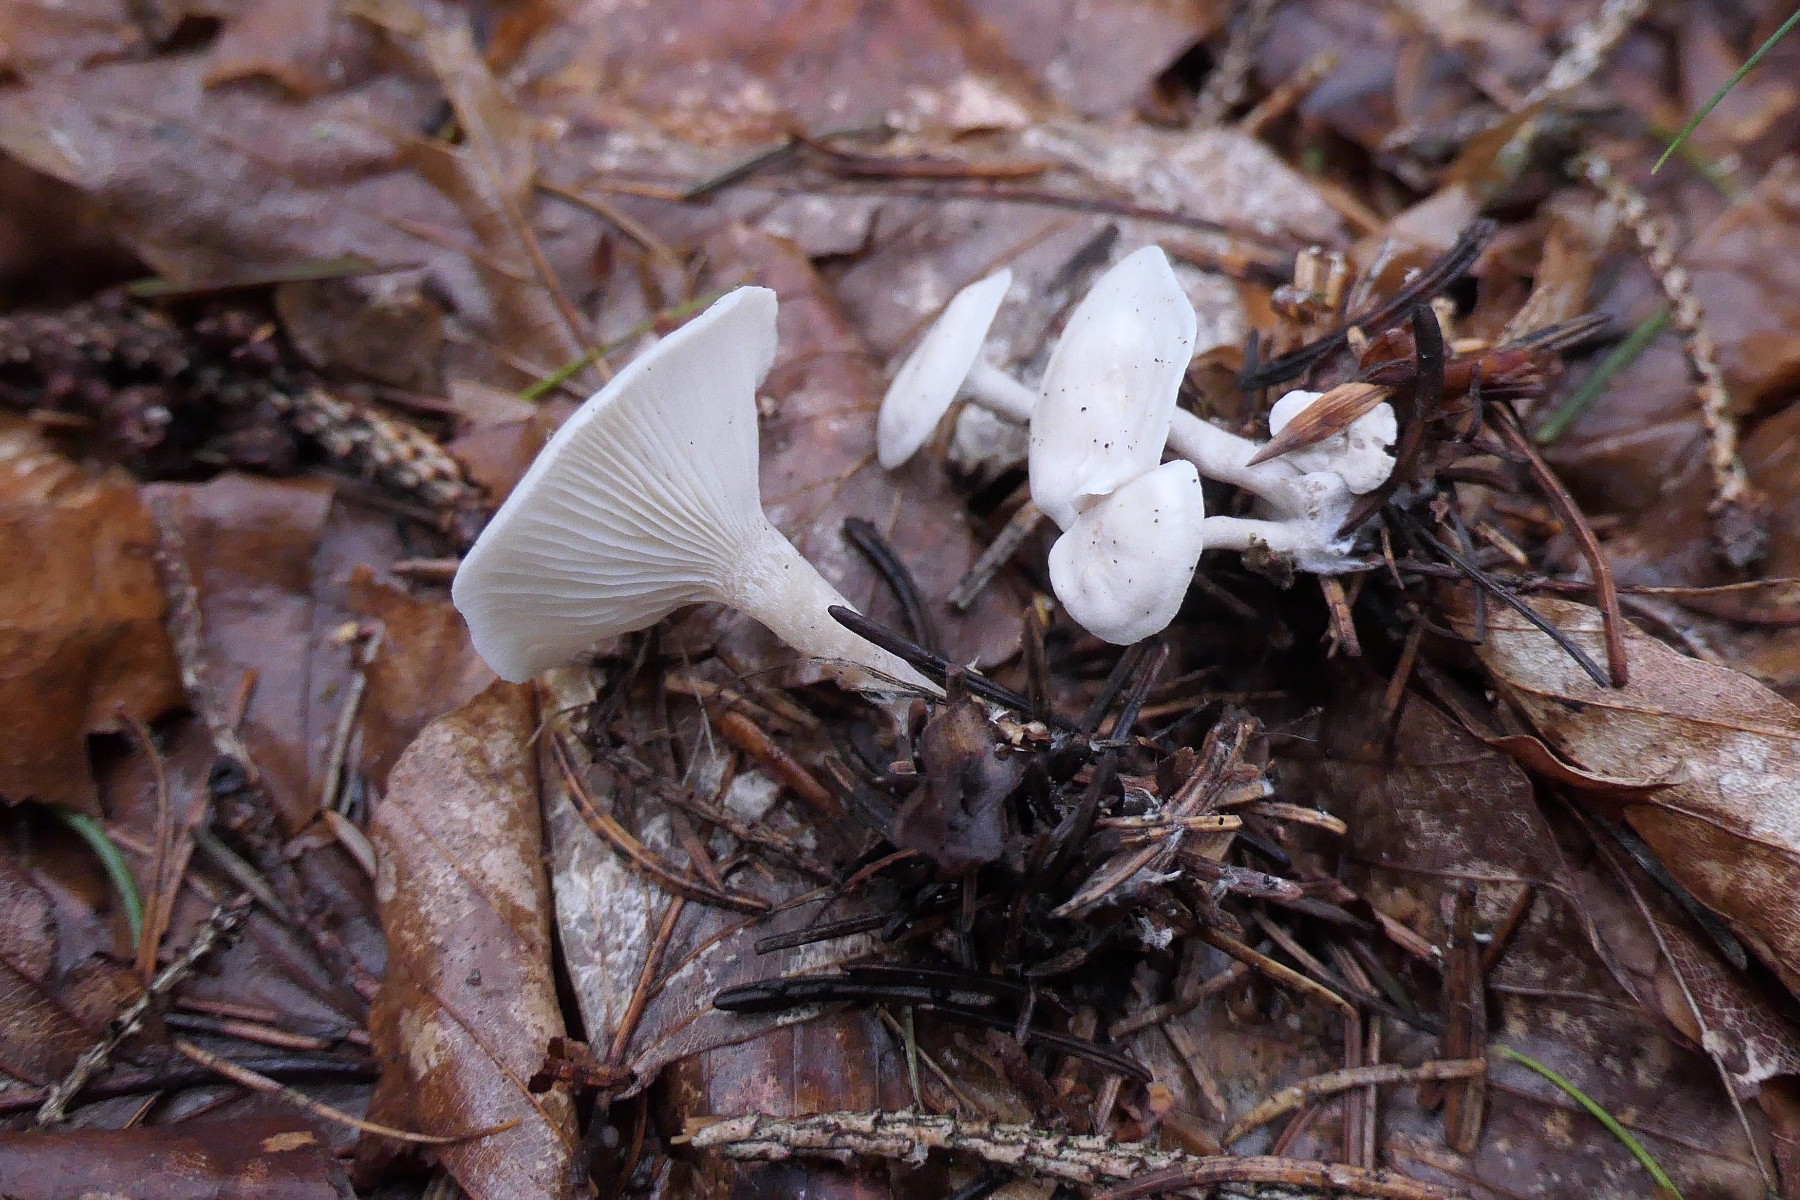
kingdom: Fungi
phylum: Basidiomycota
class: Agaricomycetes
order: Agaricales
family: Tricholomataceae
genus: Leucocybe
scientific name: Leucocybe candicans
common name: kridt-tragthat
